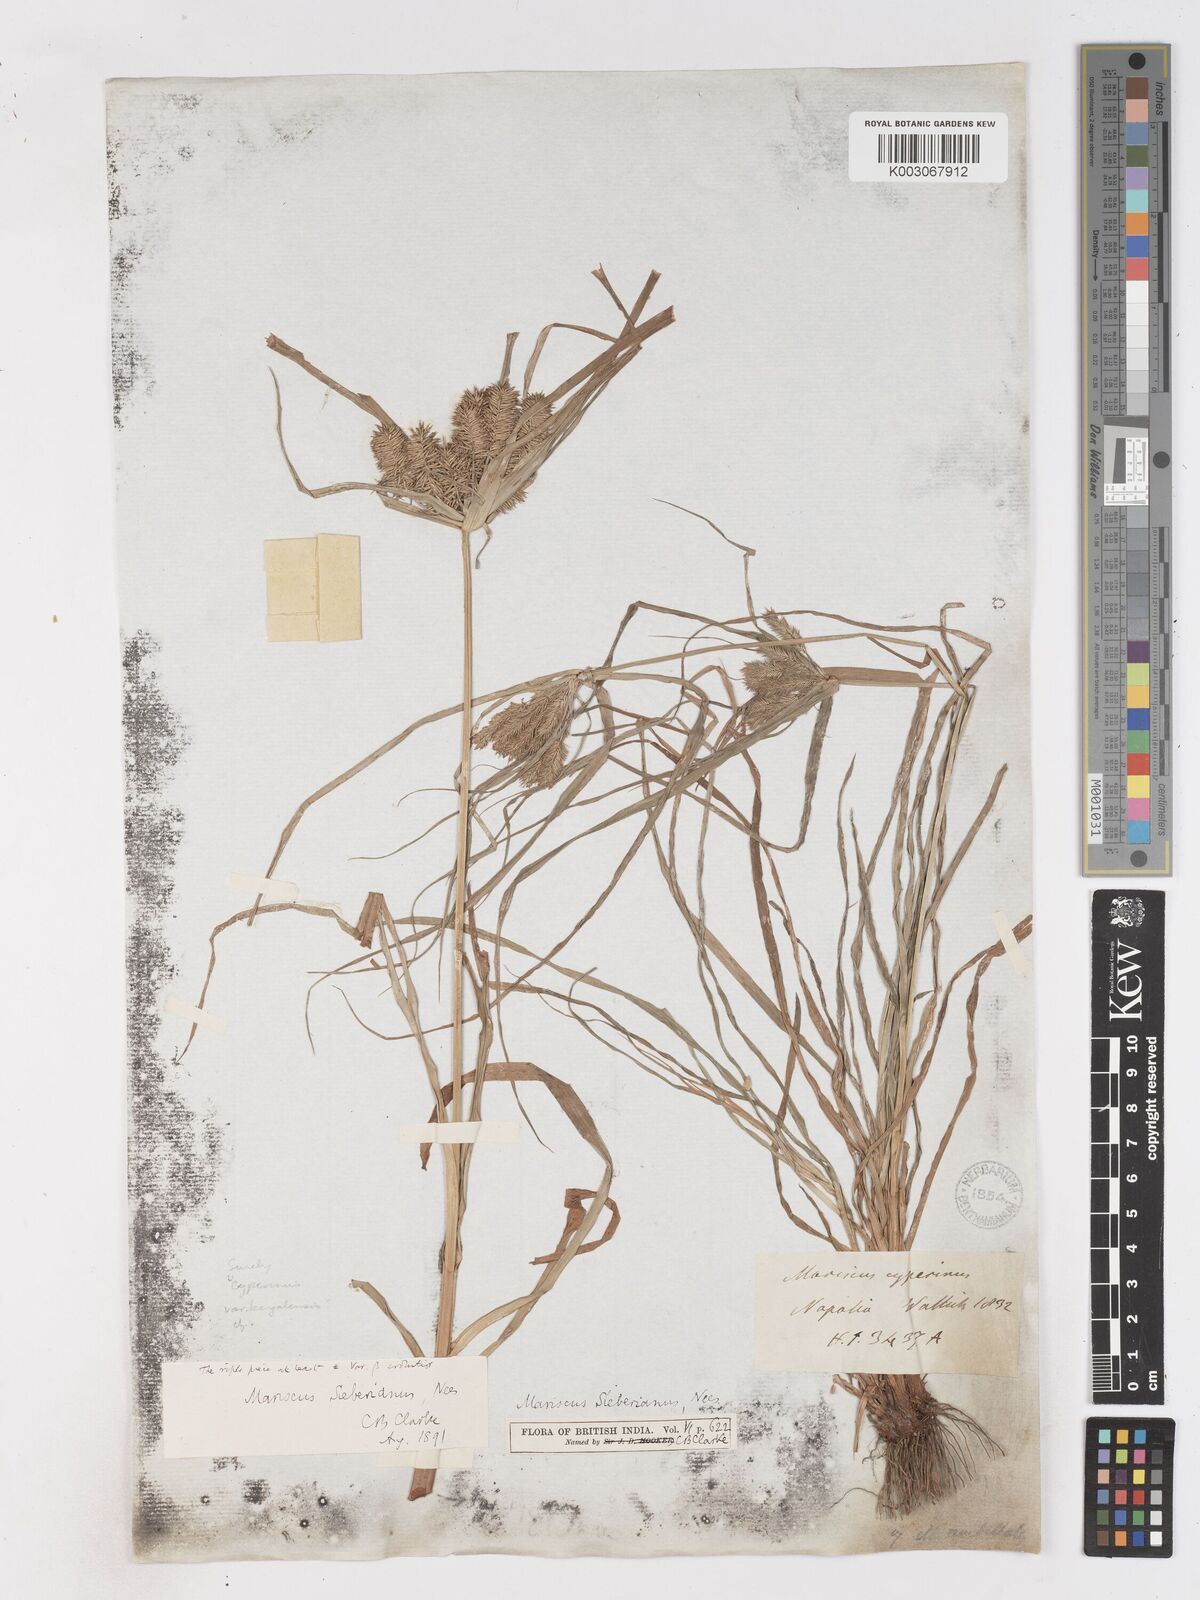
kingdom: Plantae
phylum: Tracheophyta
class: Liliopsida
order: Poales
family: Cyperaceae
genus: Cyperus
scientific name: Cyperus cyperinus
